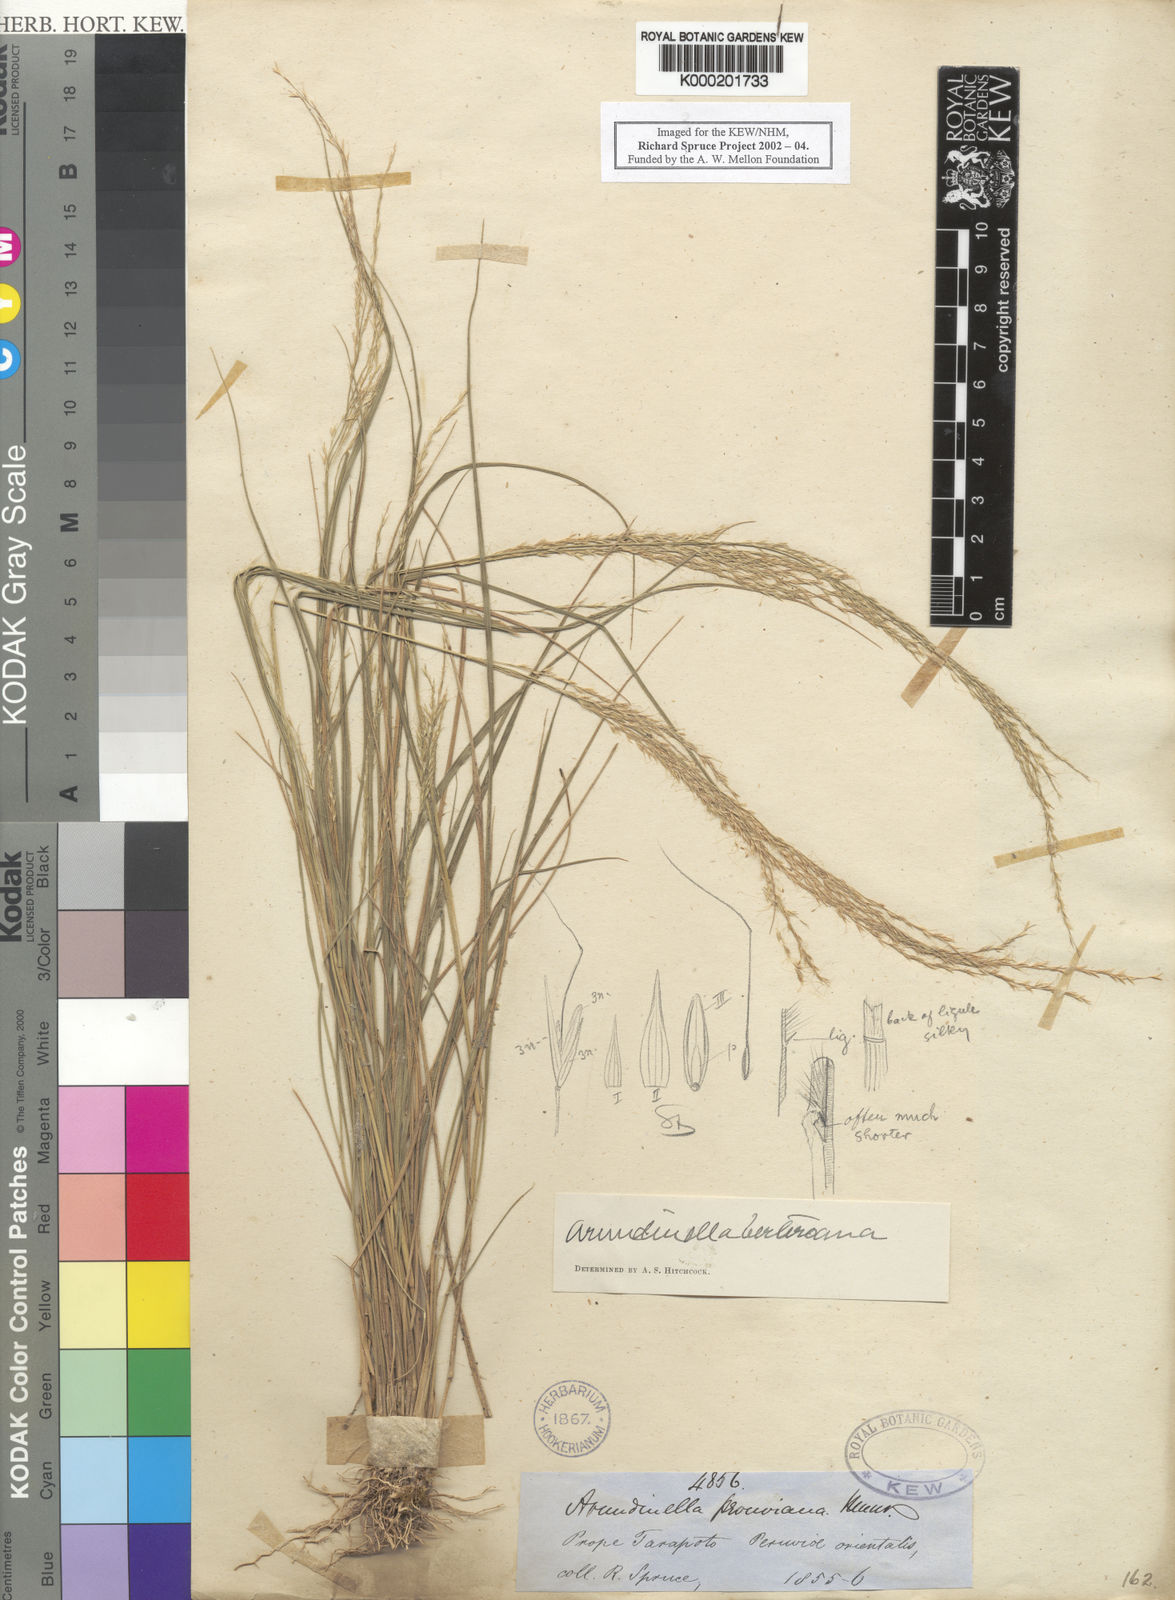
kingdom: Plantae
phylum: Tracheophyta
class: Liliopsida
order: Poales
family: Poaceae
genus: Arundinella
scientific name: Arundinella berteroniana
